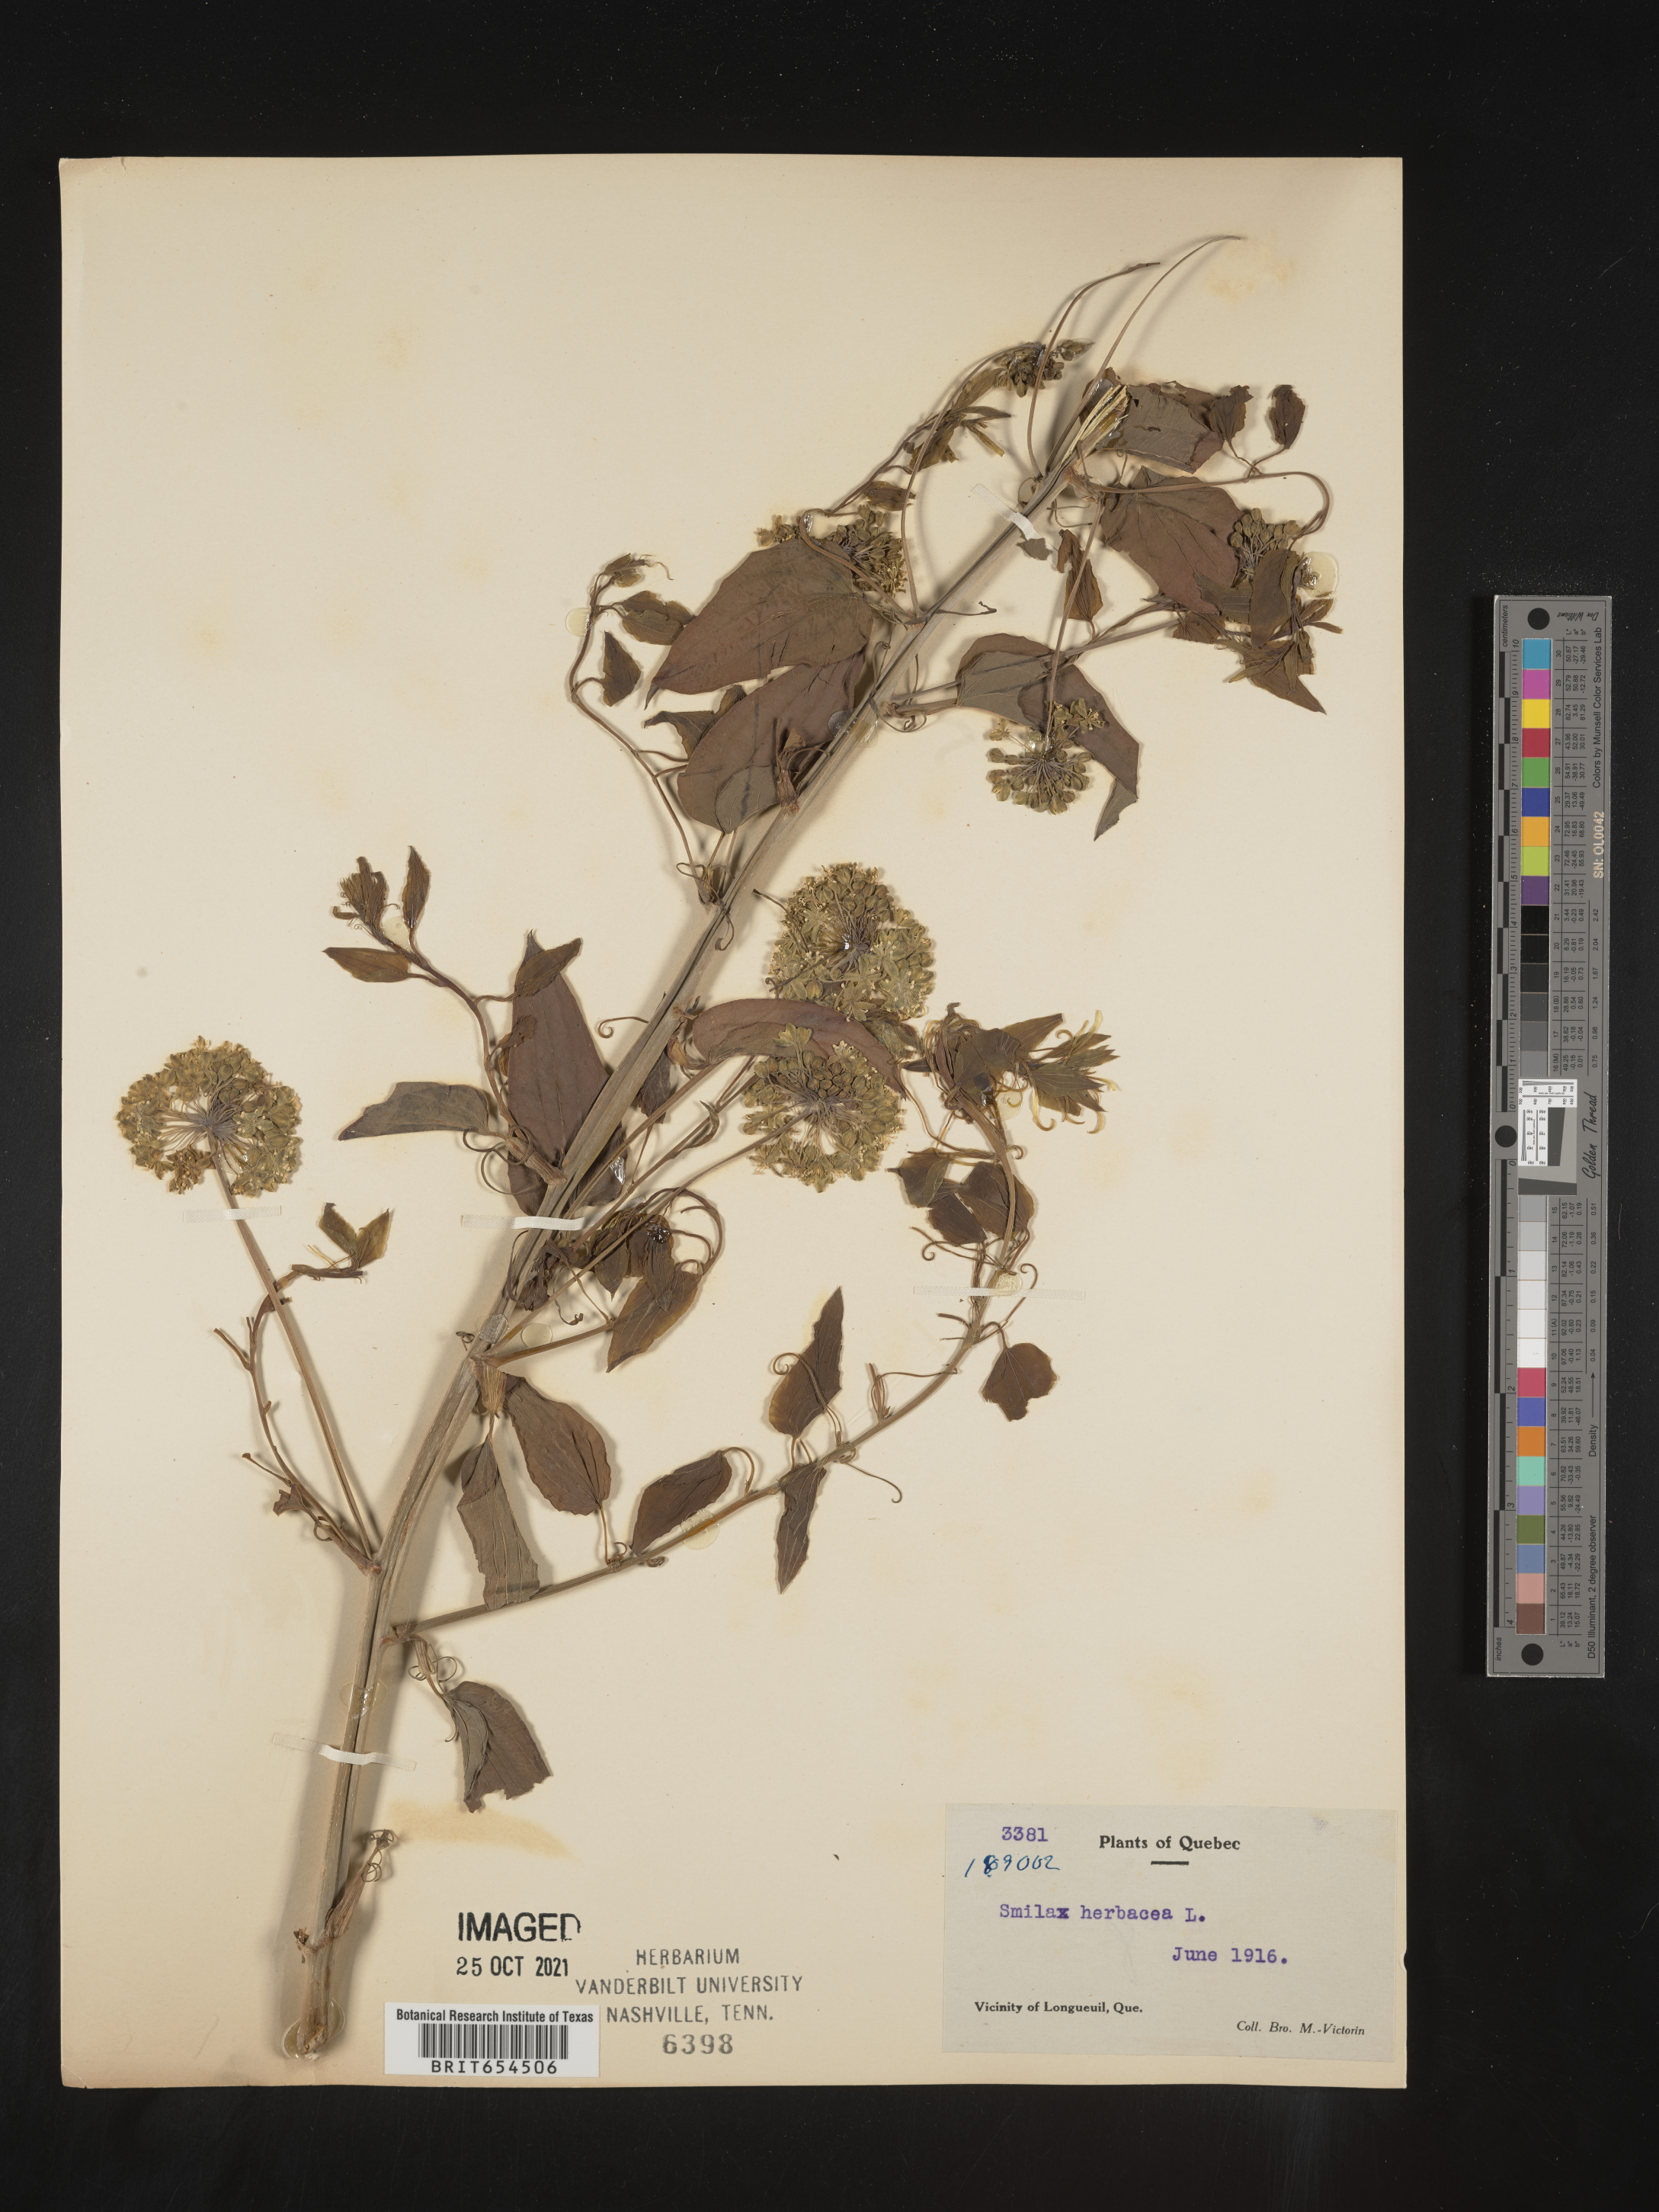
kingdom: Plantae
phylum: Tracheophyta
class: Liliopsida
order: Liliales
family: Smilacaceae
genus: Smilax
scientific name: Smilax
